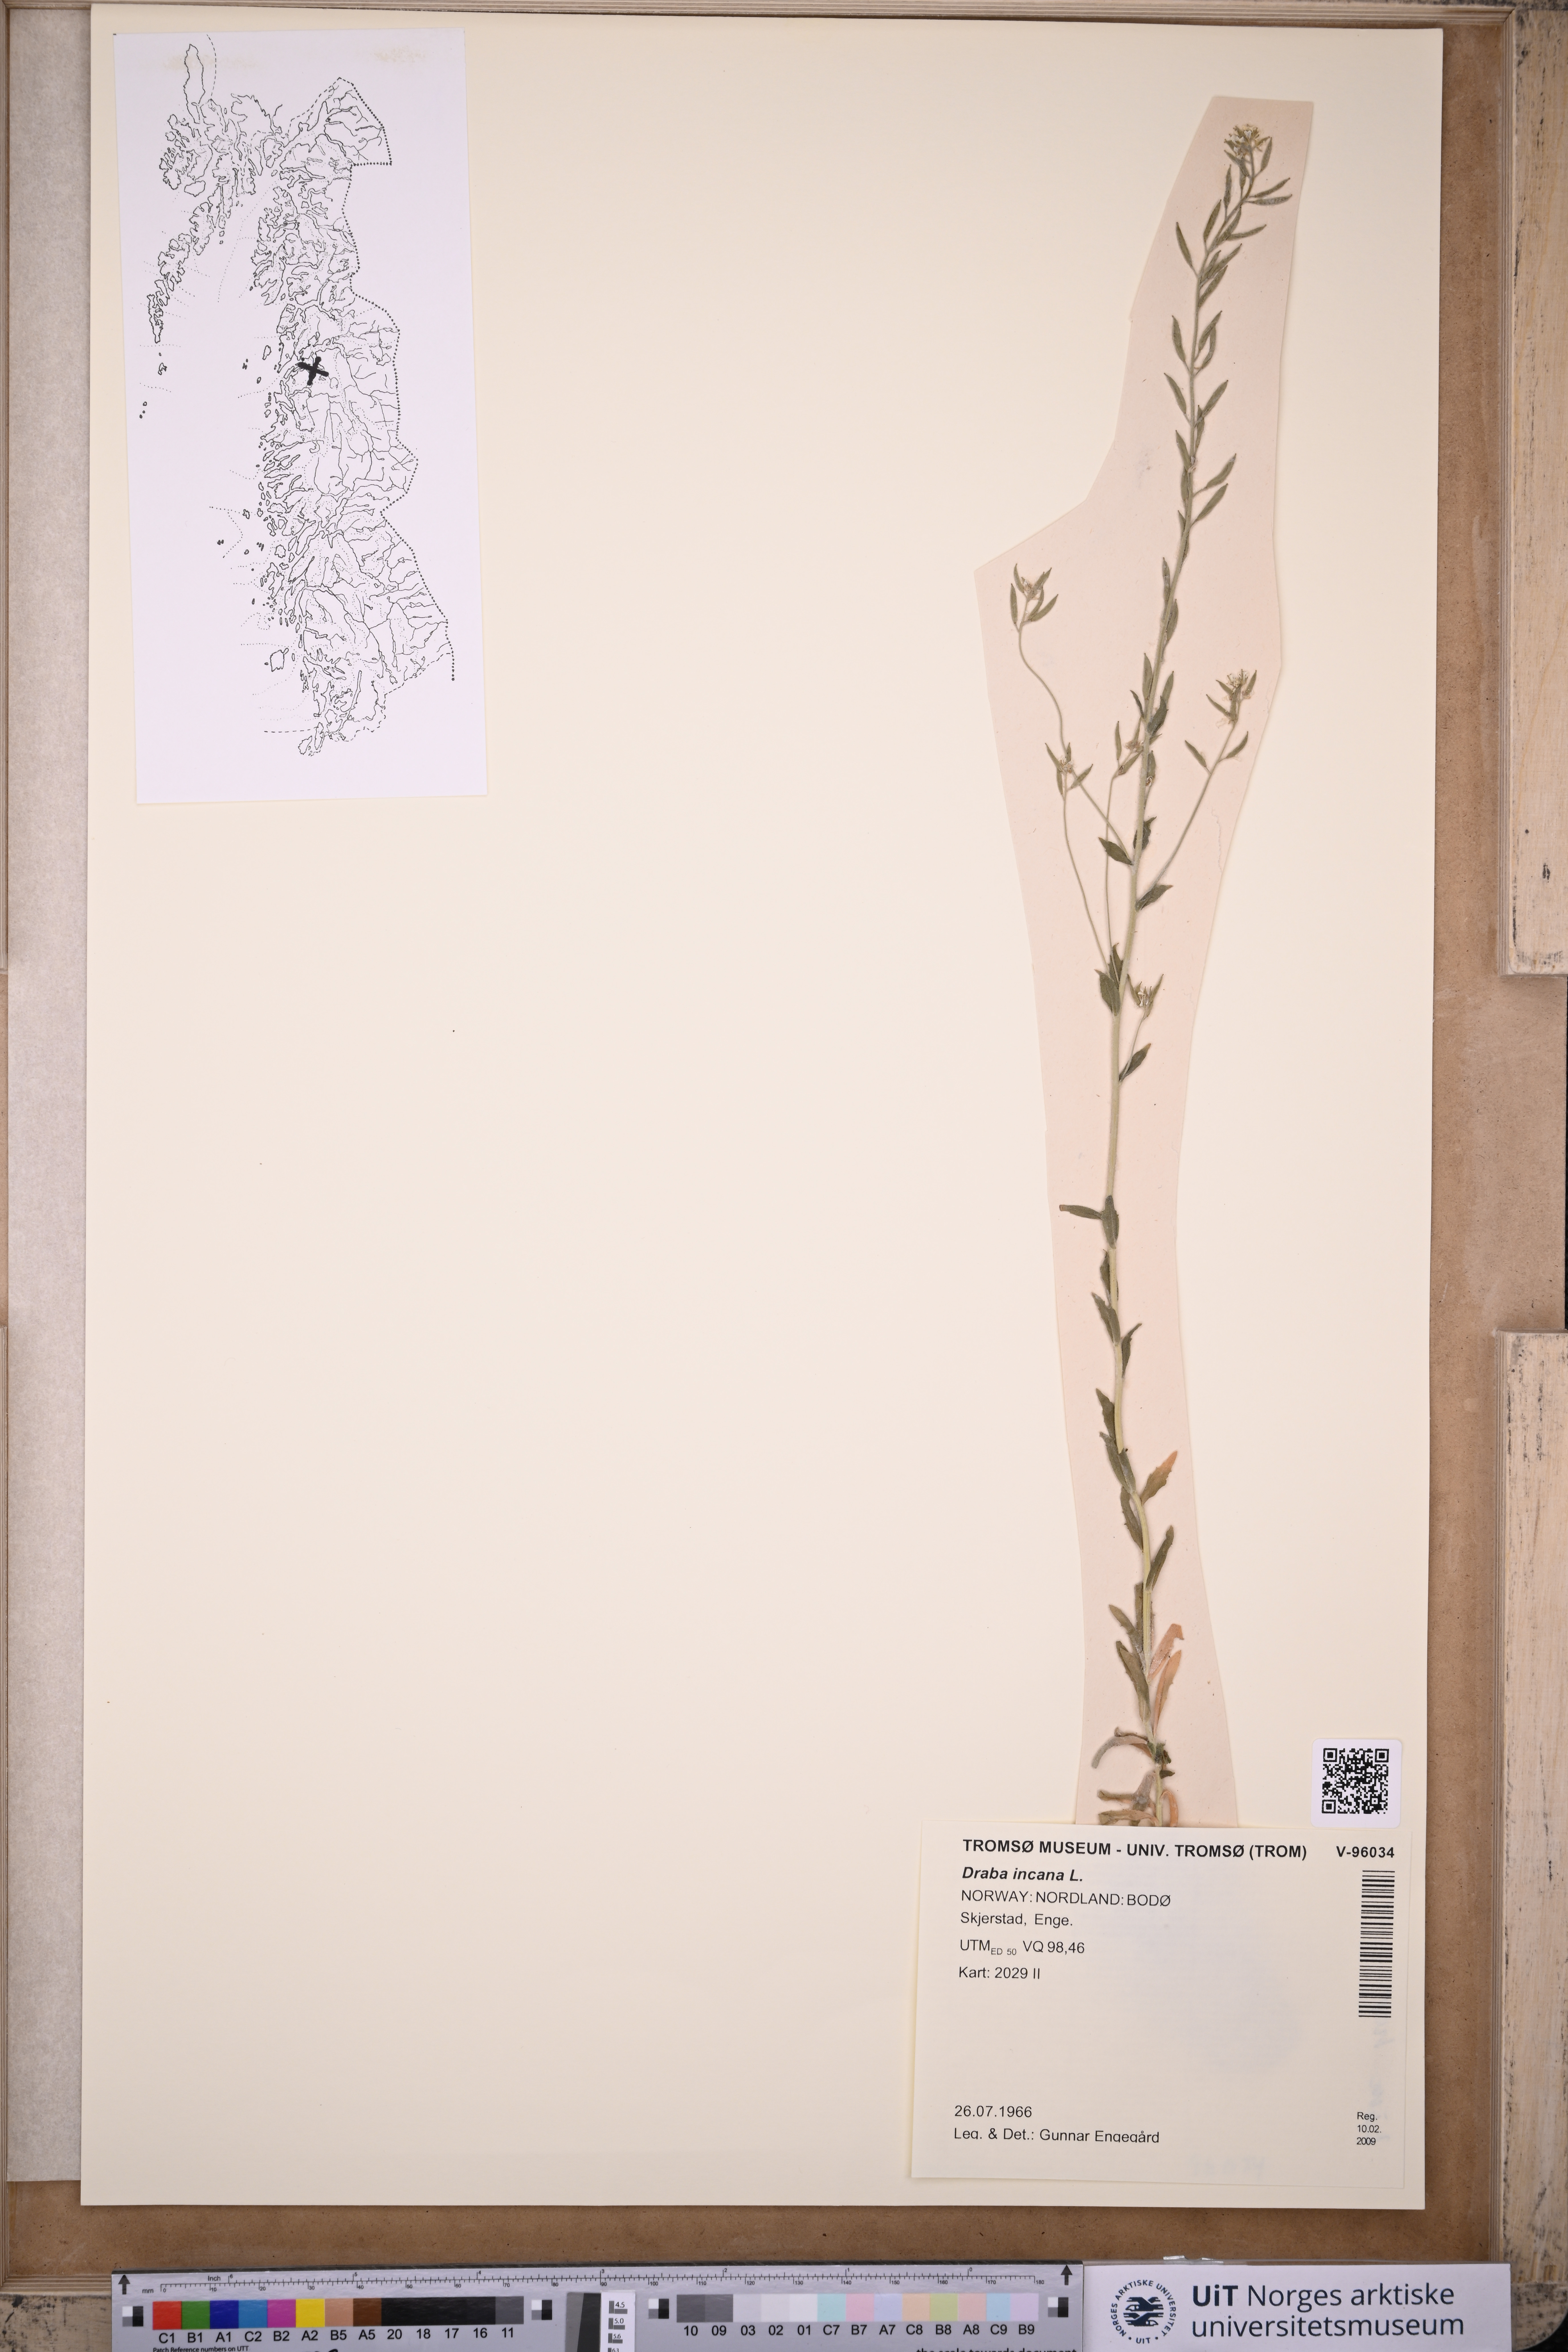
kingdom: Plantae
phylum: Tracheophyta
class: Magnoliopsida
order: Brassicales
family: Brassicaceae
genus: Draba
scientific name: Draba incana
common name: Hoary whitlow-grass
